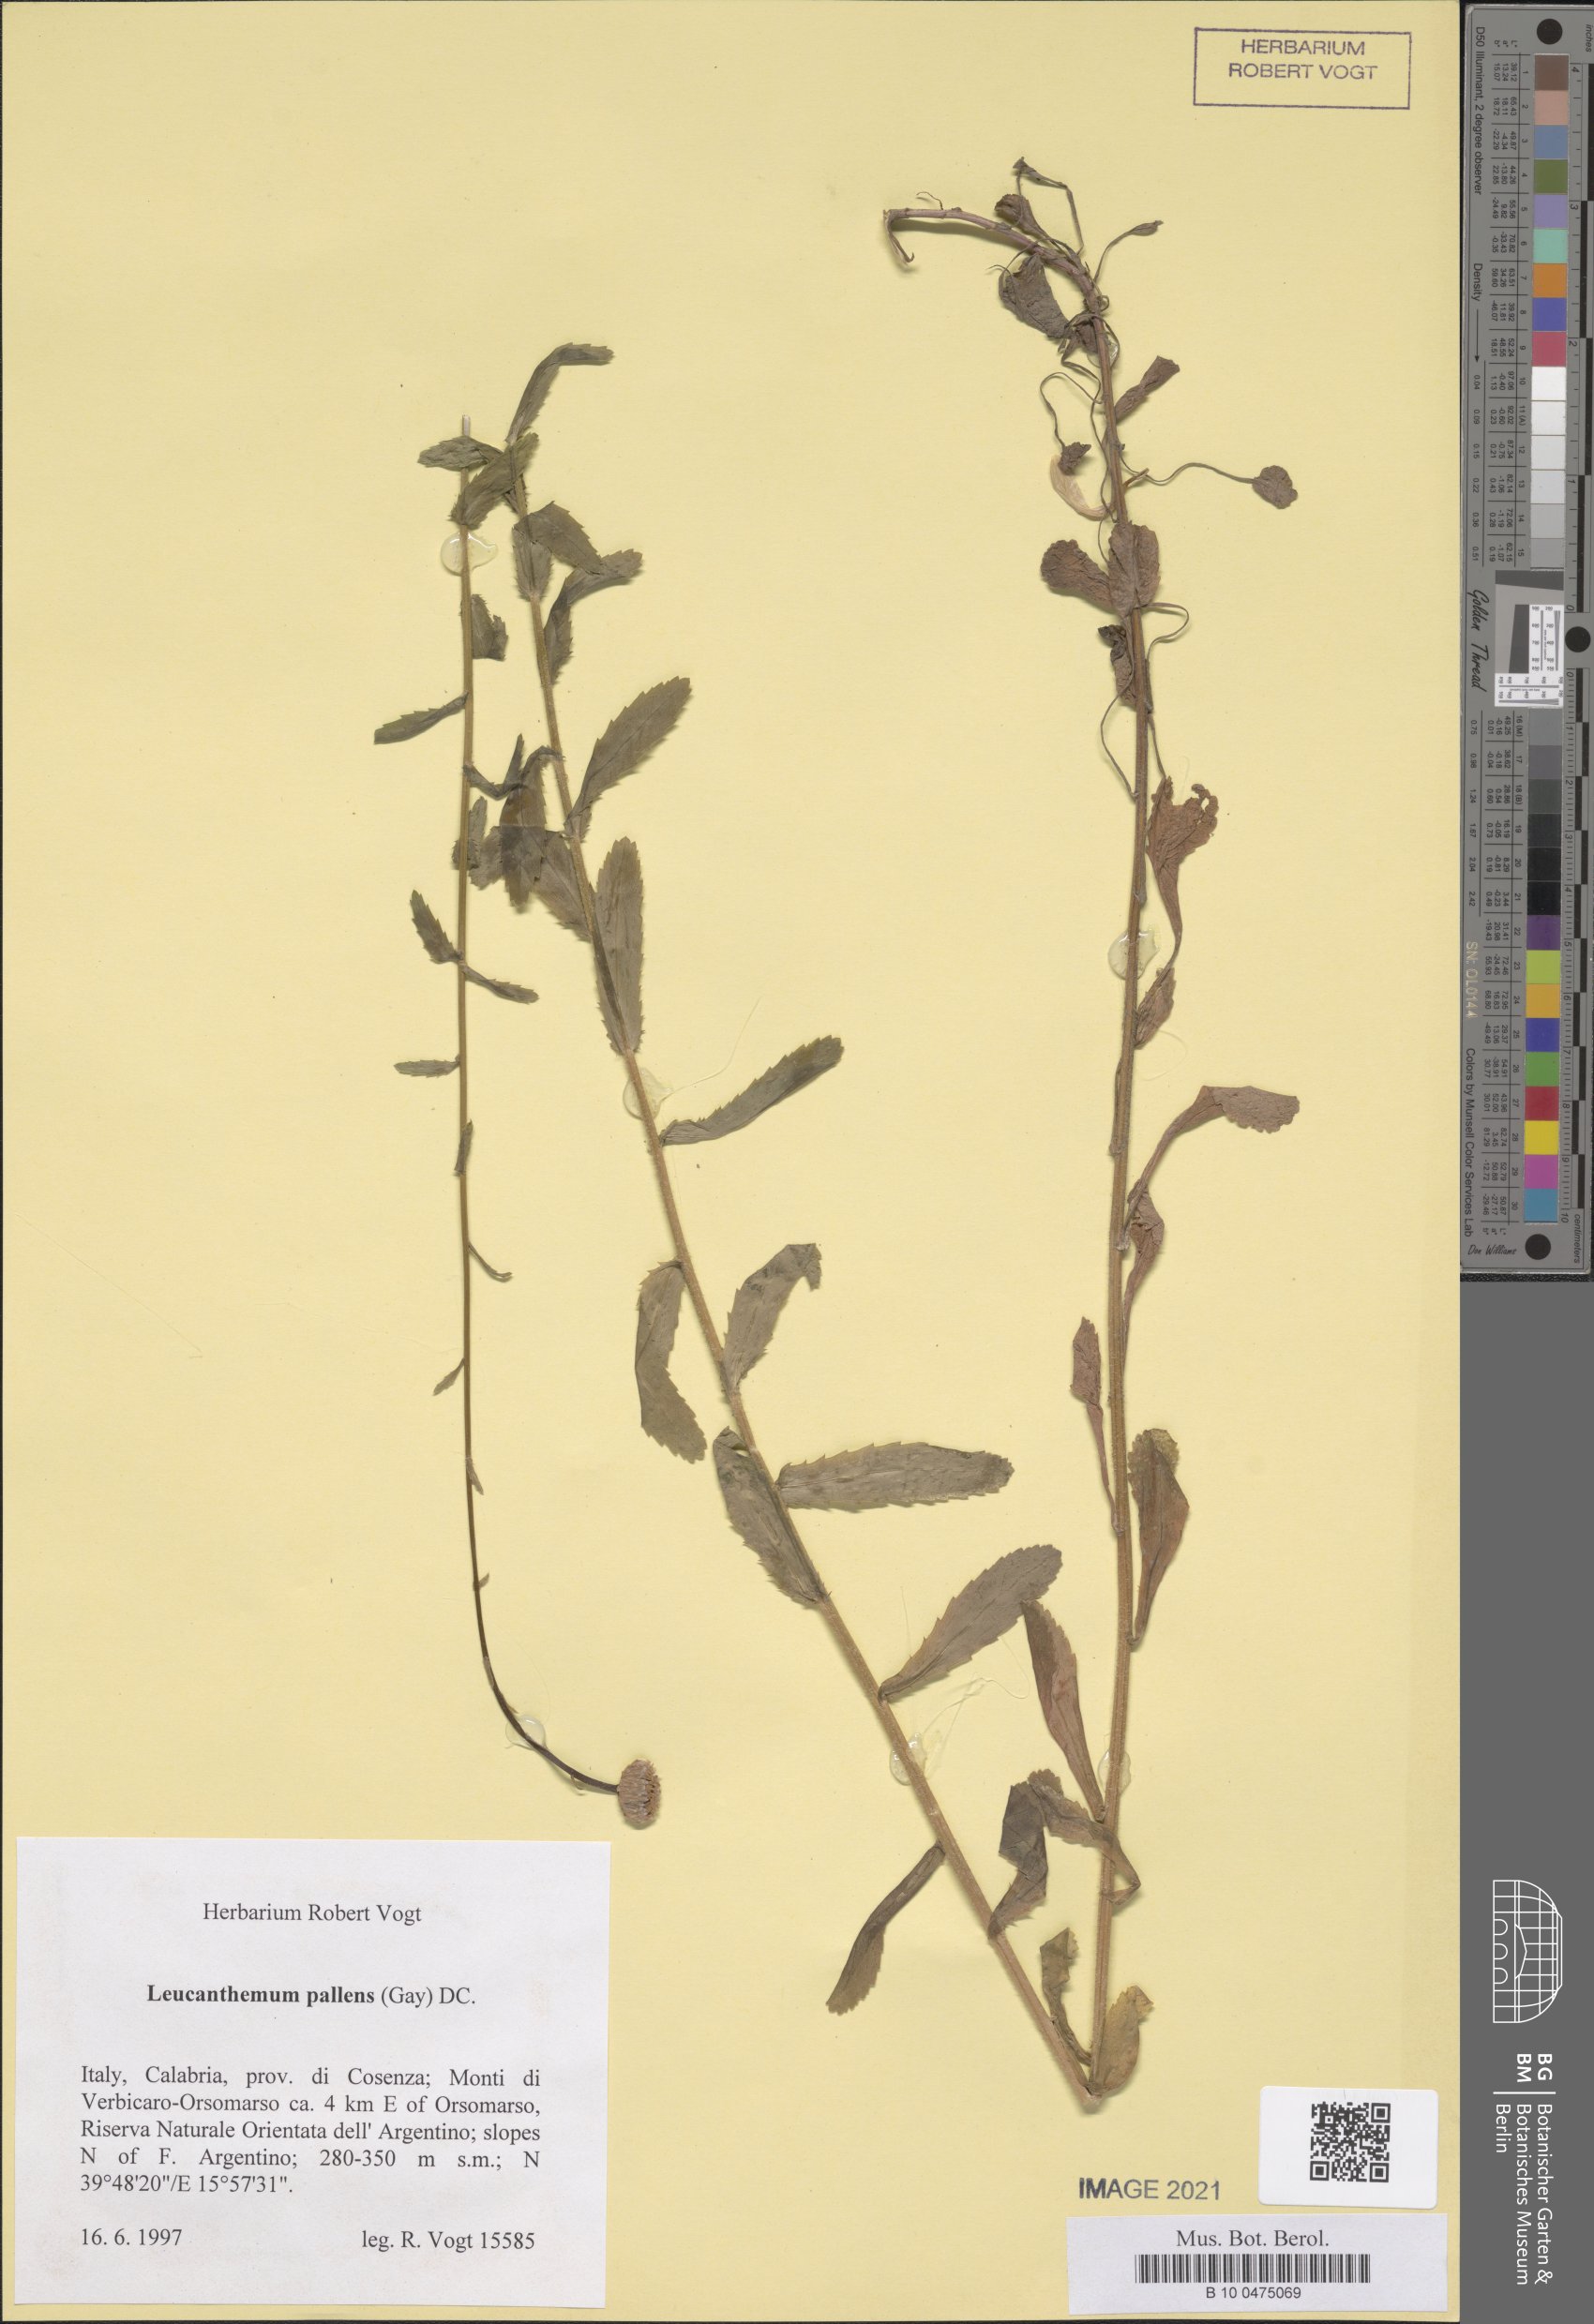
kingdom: Plantae
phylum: Tracheophyta
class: Magnoliopsida
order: Asterales
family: Asteraceae
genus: Leucanthemum
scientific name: Leucanthemum ircutianum
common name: Daisy
